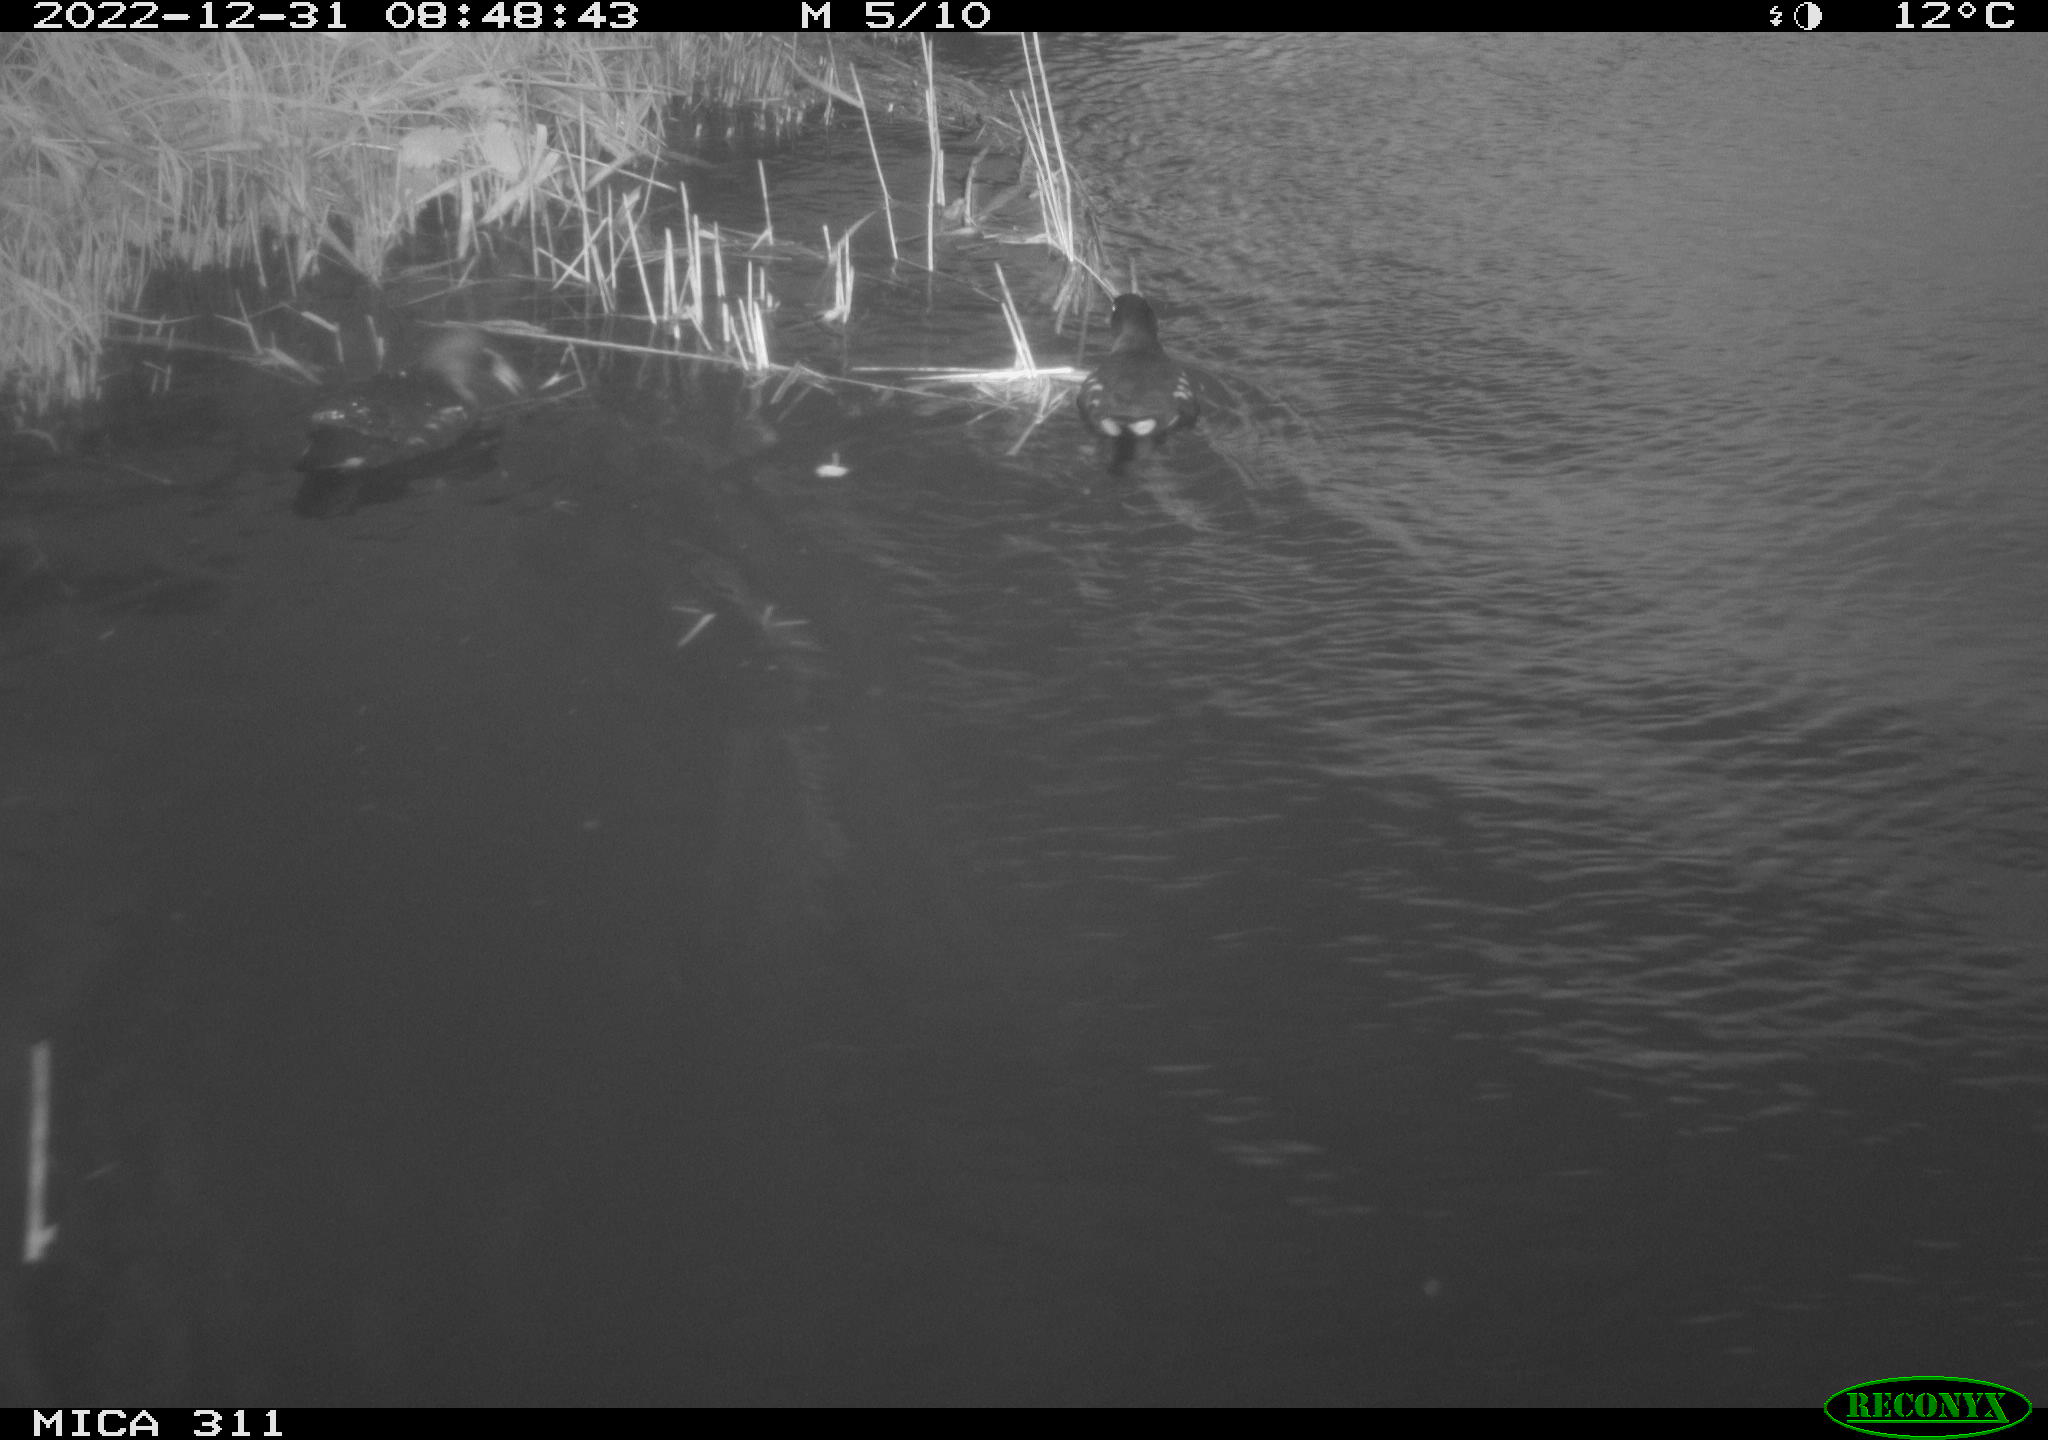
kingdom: Animalia
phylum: Chordata
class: Aves
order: Gruiformes
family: Rallidae
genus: Gallinula
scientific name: Gallinula chloropus
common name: Common moorhen
